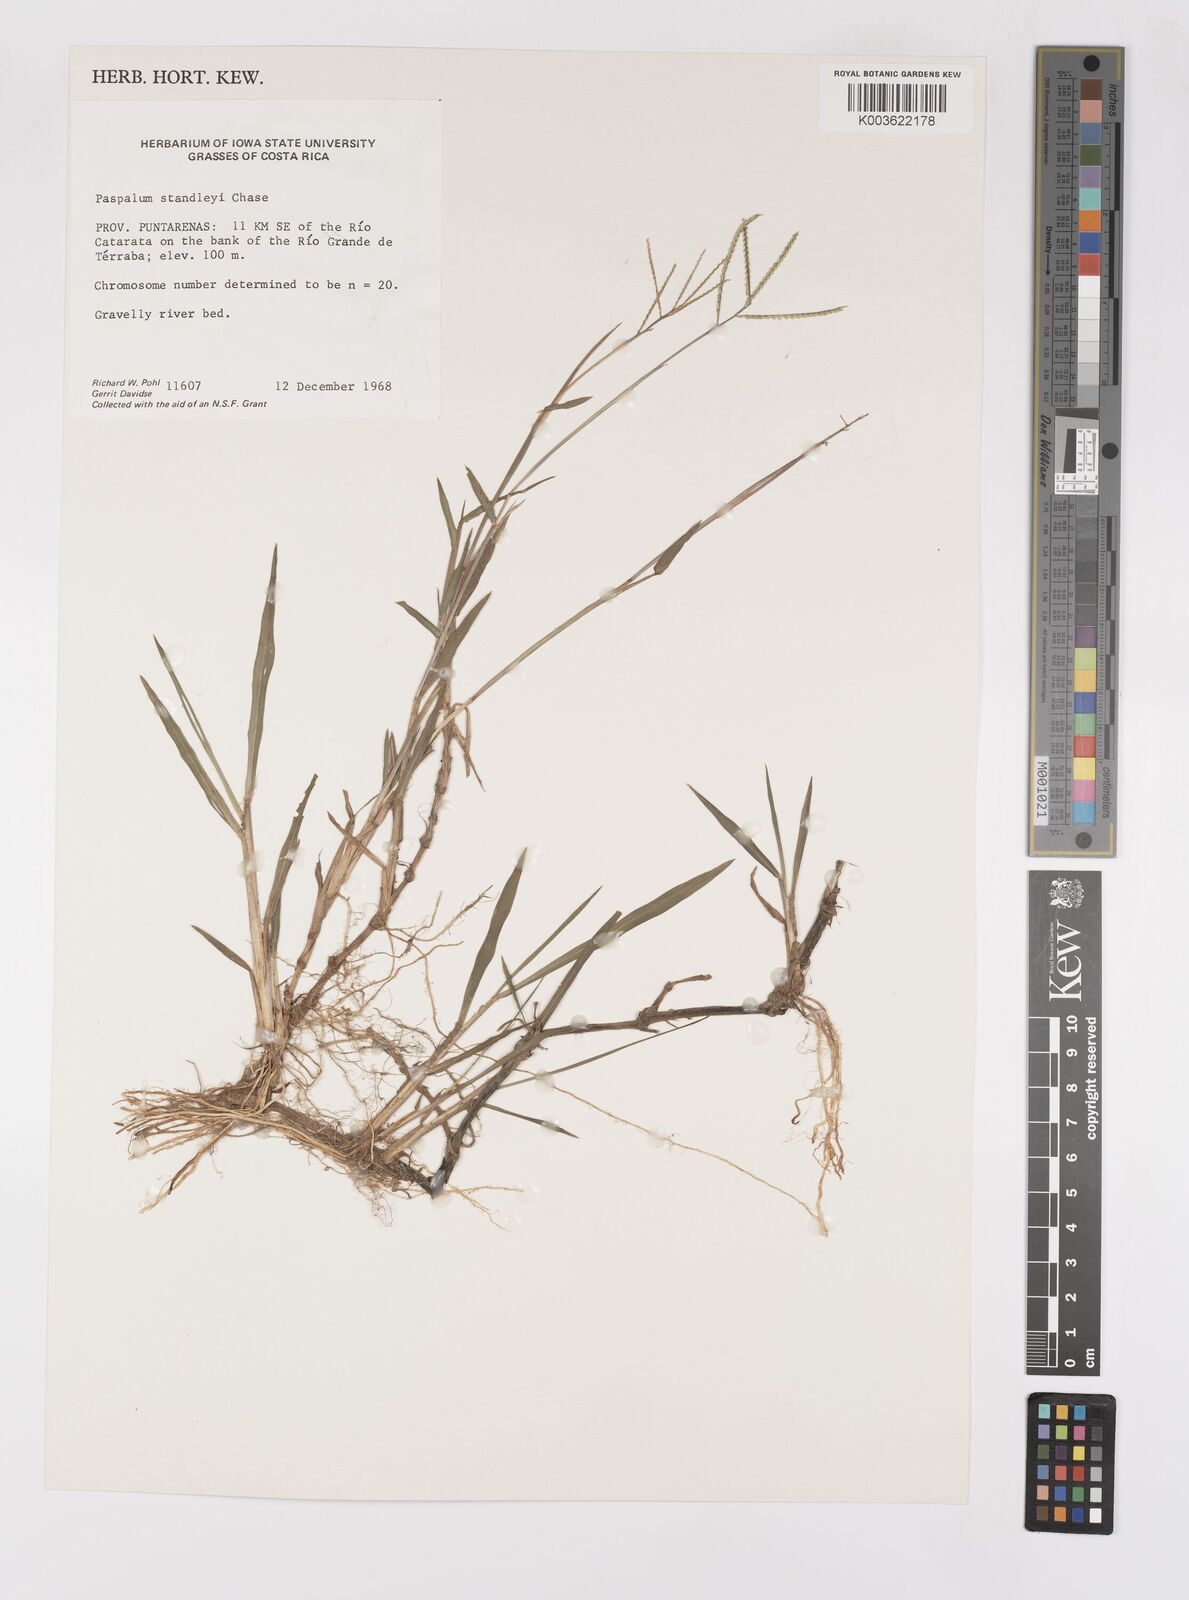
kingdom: Plantae
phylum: Tracheophyta
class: Liliopsida
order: Poales
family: Poaceae
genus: Paspalum
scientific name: Paspalum standleyi
